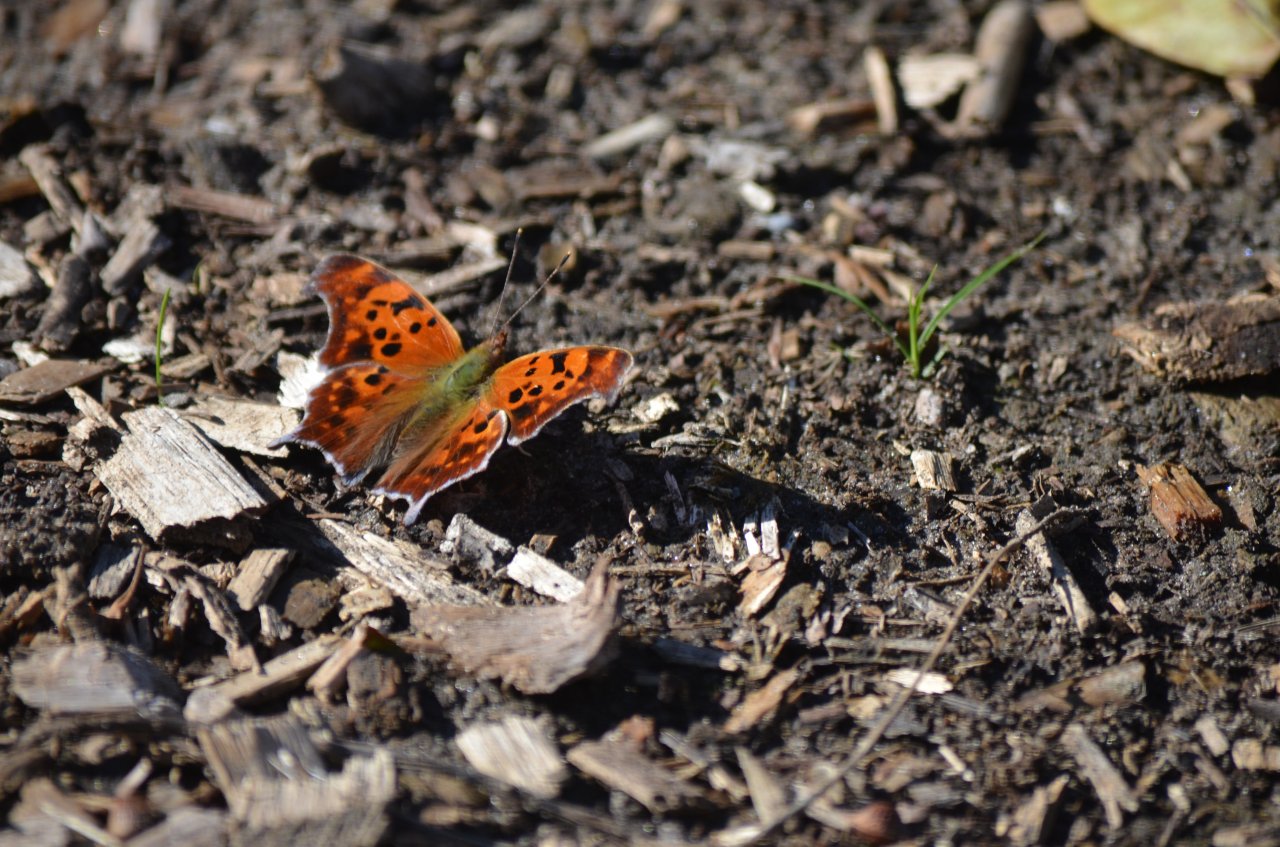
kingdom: Animalia
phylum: Arthropoda
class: Insecta
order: Lepidoptera
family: Nymphalidae
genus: Polygonia
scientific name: Polygonia interrogationis
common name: Question Mark
